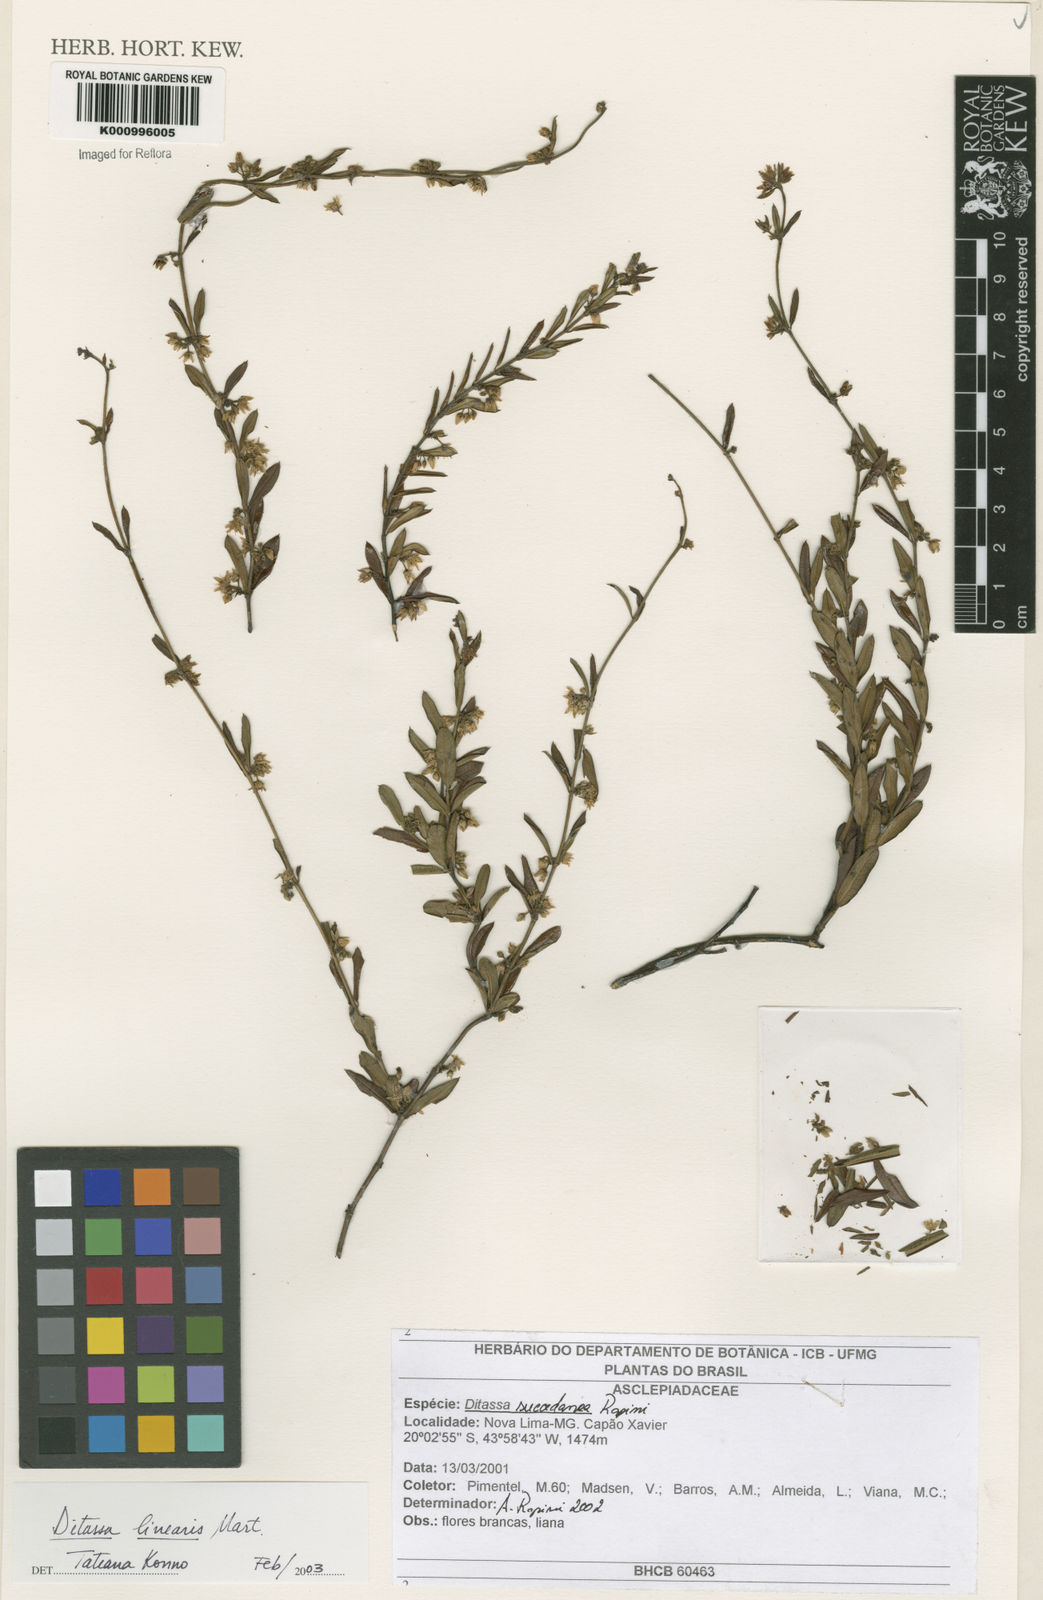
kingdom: Plantae
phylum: Tracheophyta
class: Magnoliopsida
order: Gentianales
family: Apocynaceae
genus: Ditassa
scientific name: Ditassa linearis
